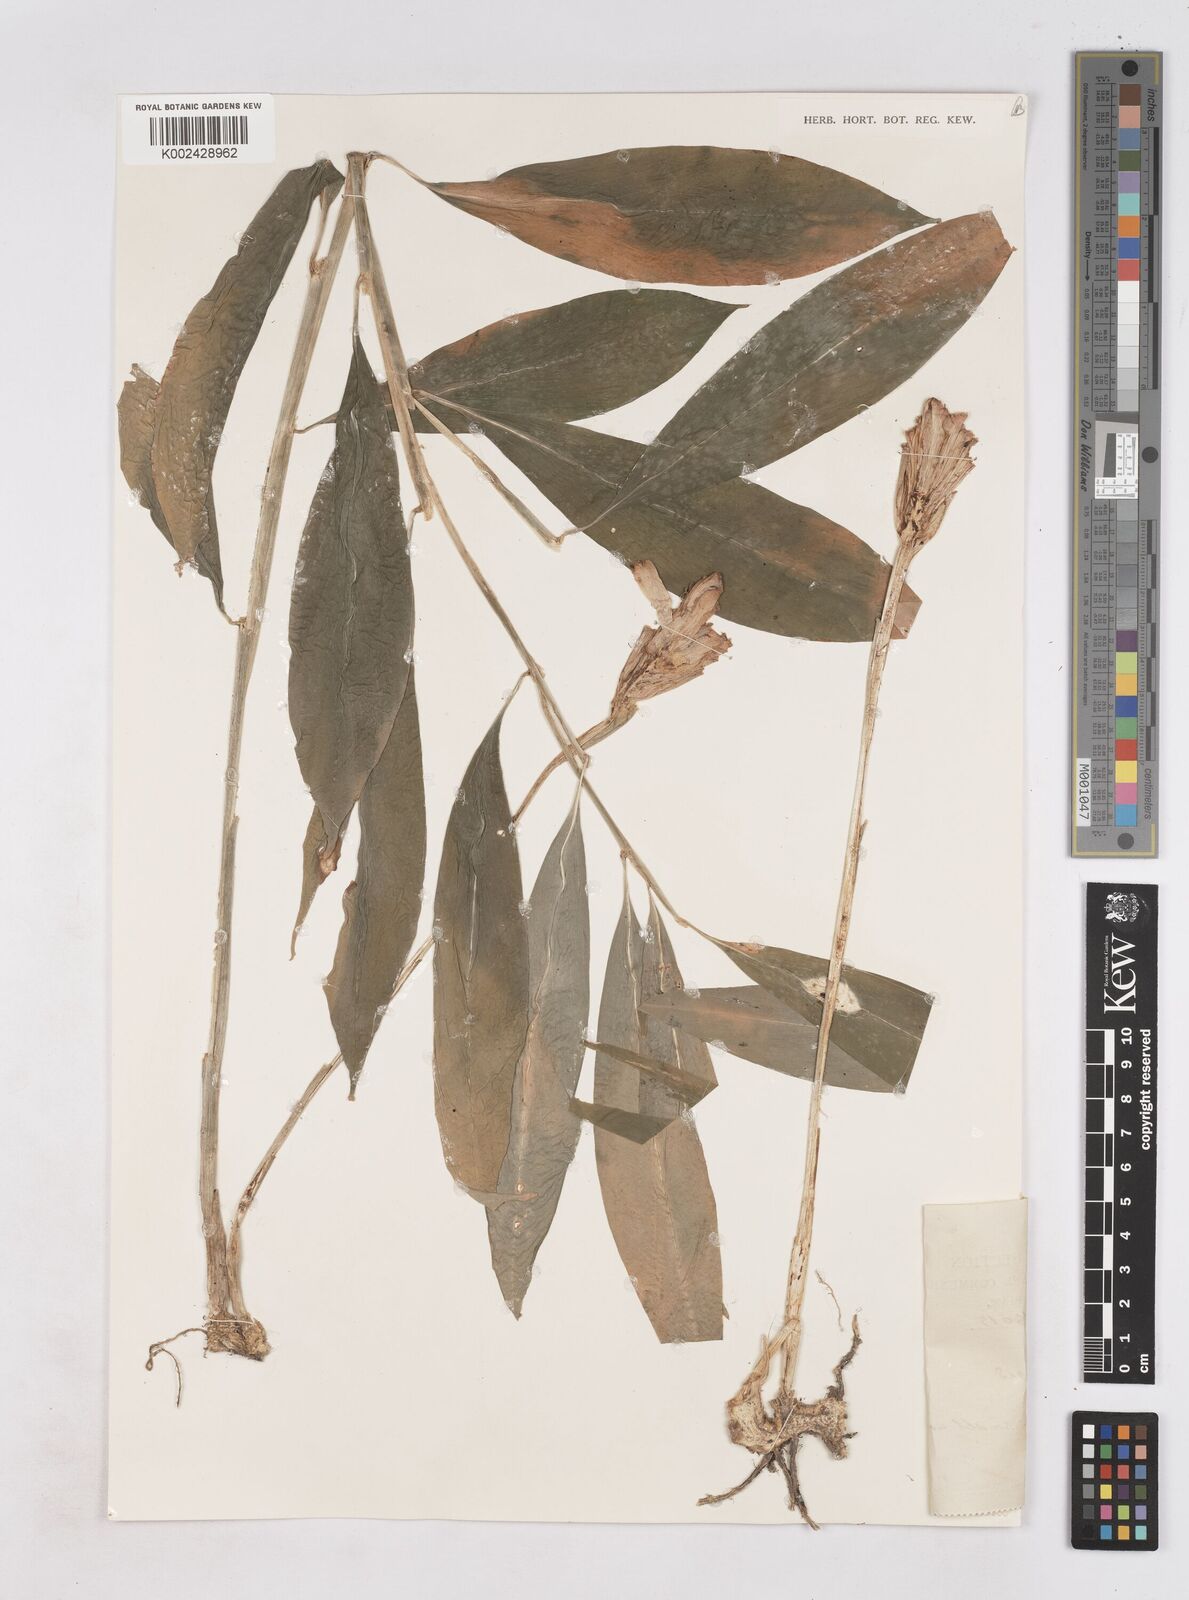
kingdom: Plantae
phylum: Tracheophyta
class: Liliopsida
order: Zingiberales
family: Zingiberaceae
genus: Zingiber
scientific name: Zingiber zerumbet
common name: Bitter ginger
